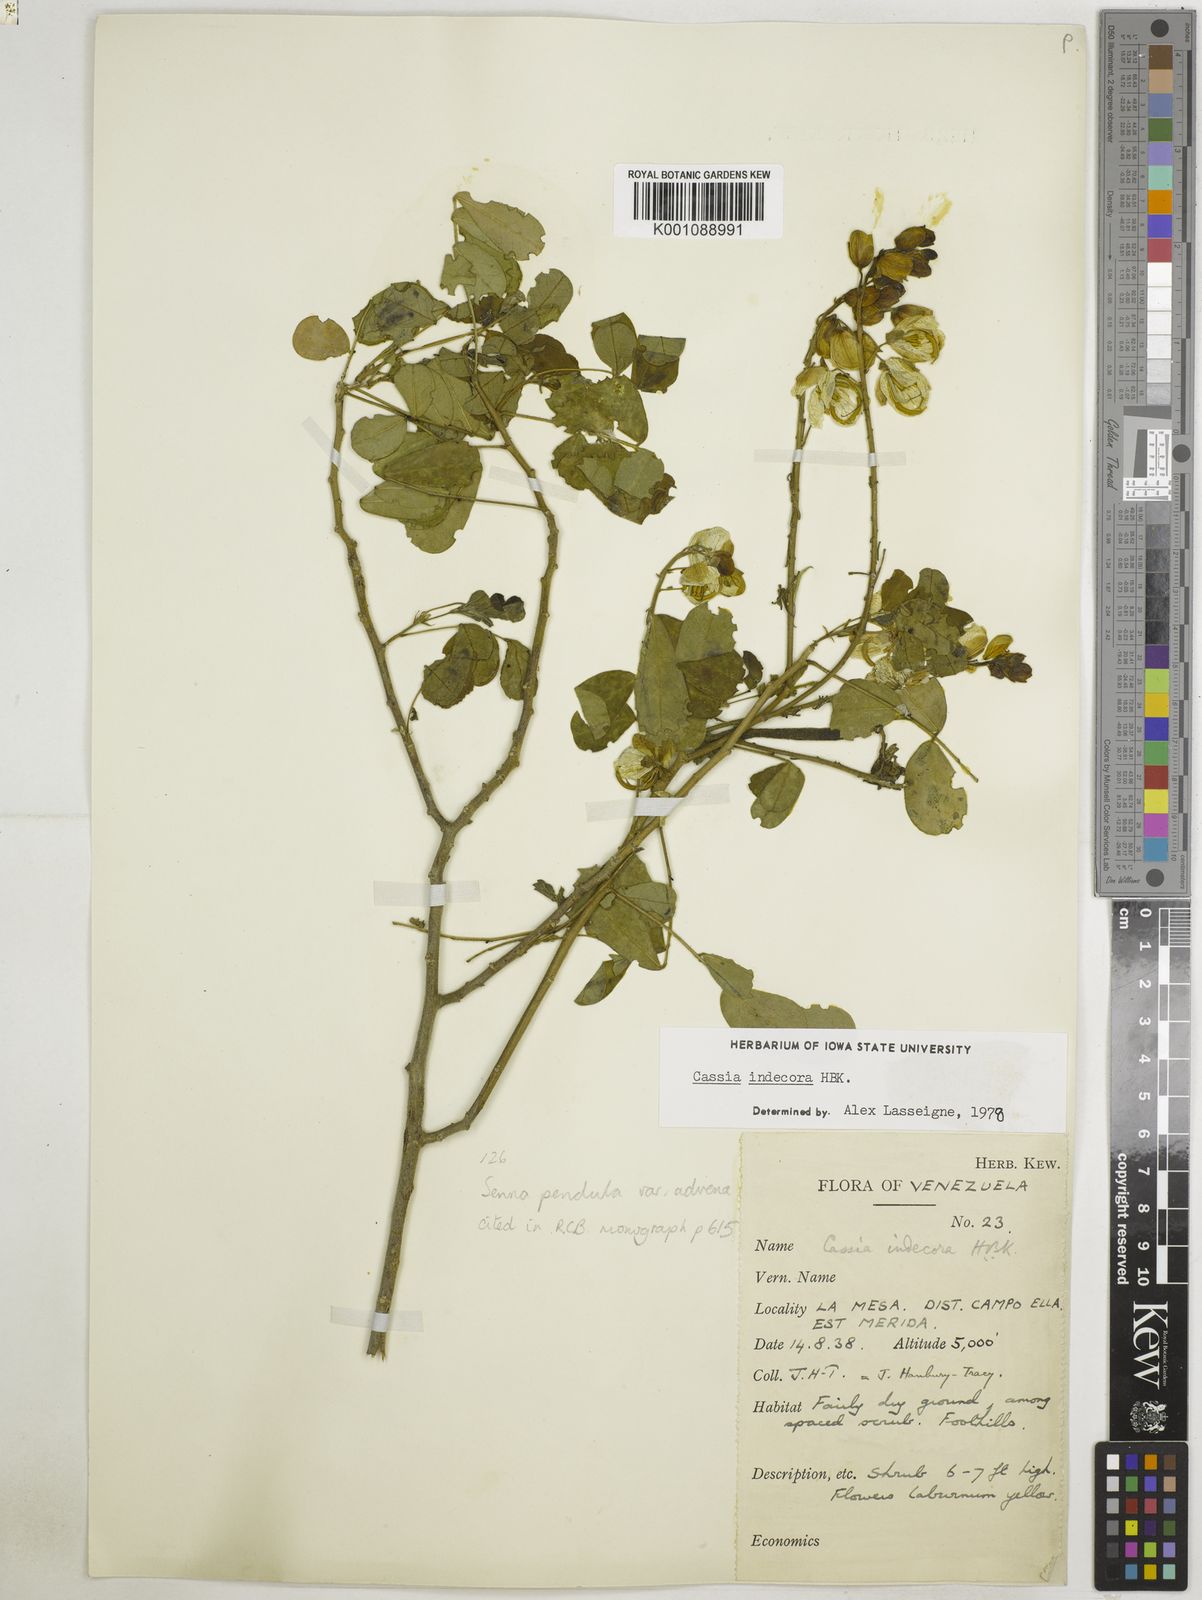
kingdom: Plantae
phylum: Tracheophyta
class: Magnoliopsida
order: Fabales
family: Fabaceae
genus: Senna
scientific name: Senna pendula
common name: Easter cassia
